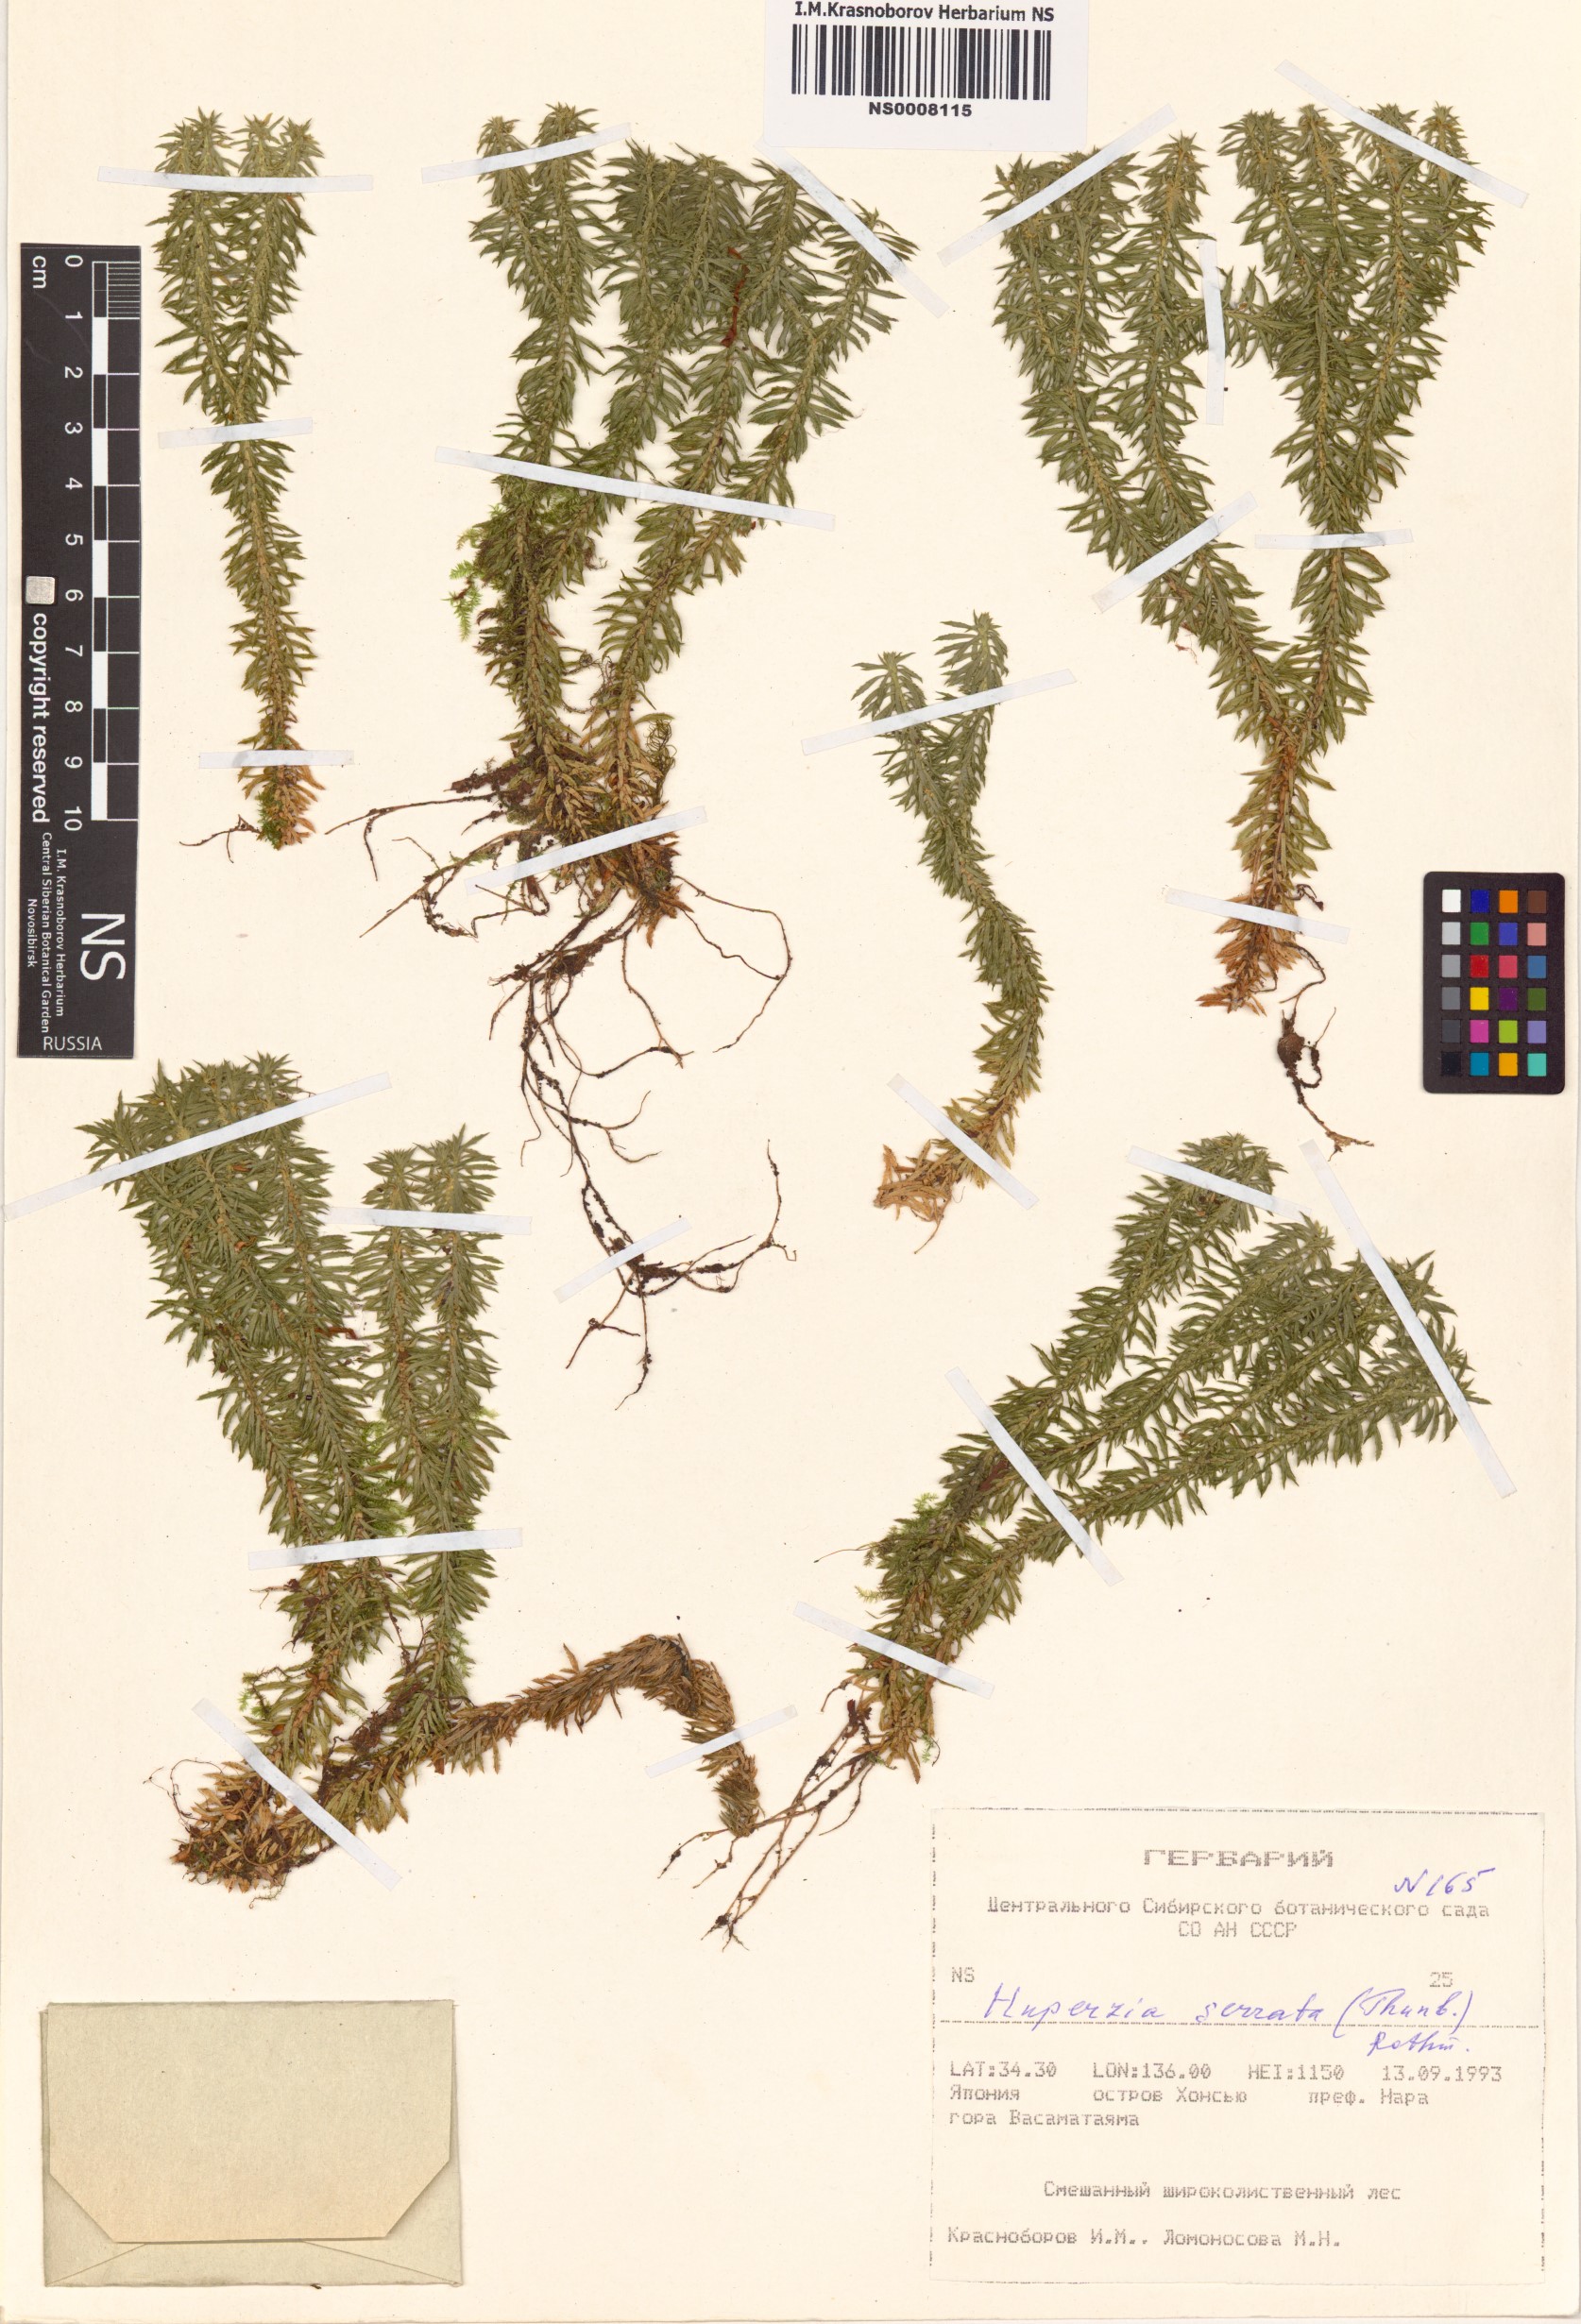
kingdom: Plantae
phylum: Tracheophyta
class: Lycopodiopsida
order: Lycopodiales
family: Lycopodiaceae
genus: Huperzia
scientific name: Huperzia serrata
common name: Toothed club-moss
